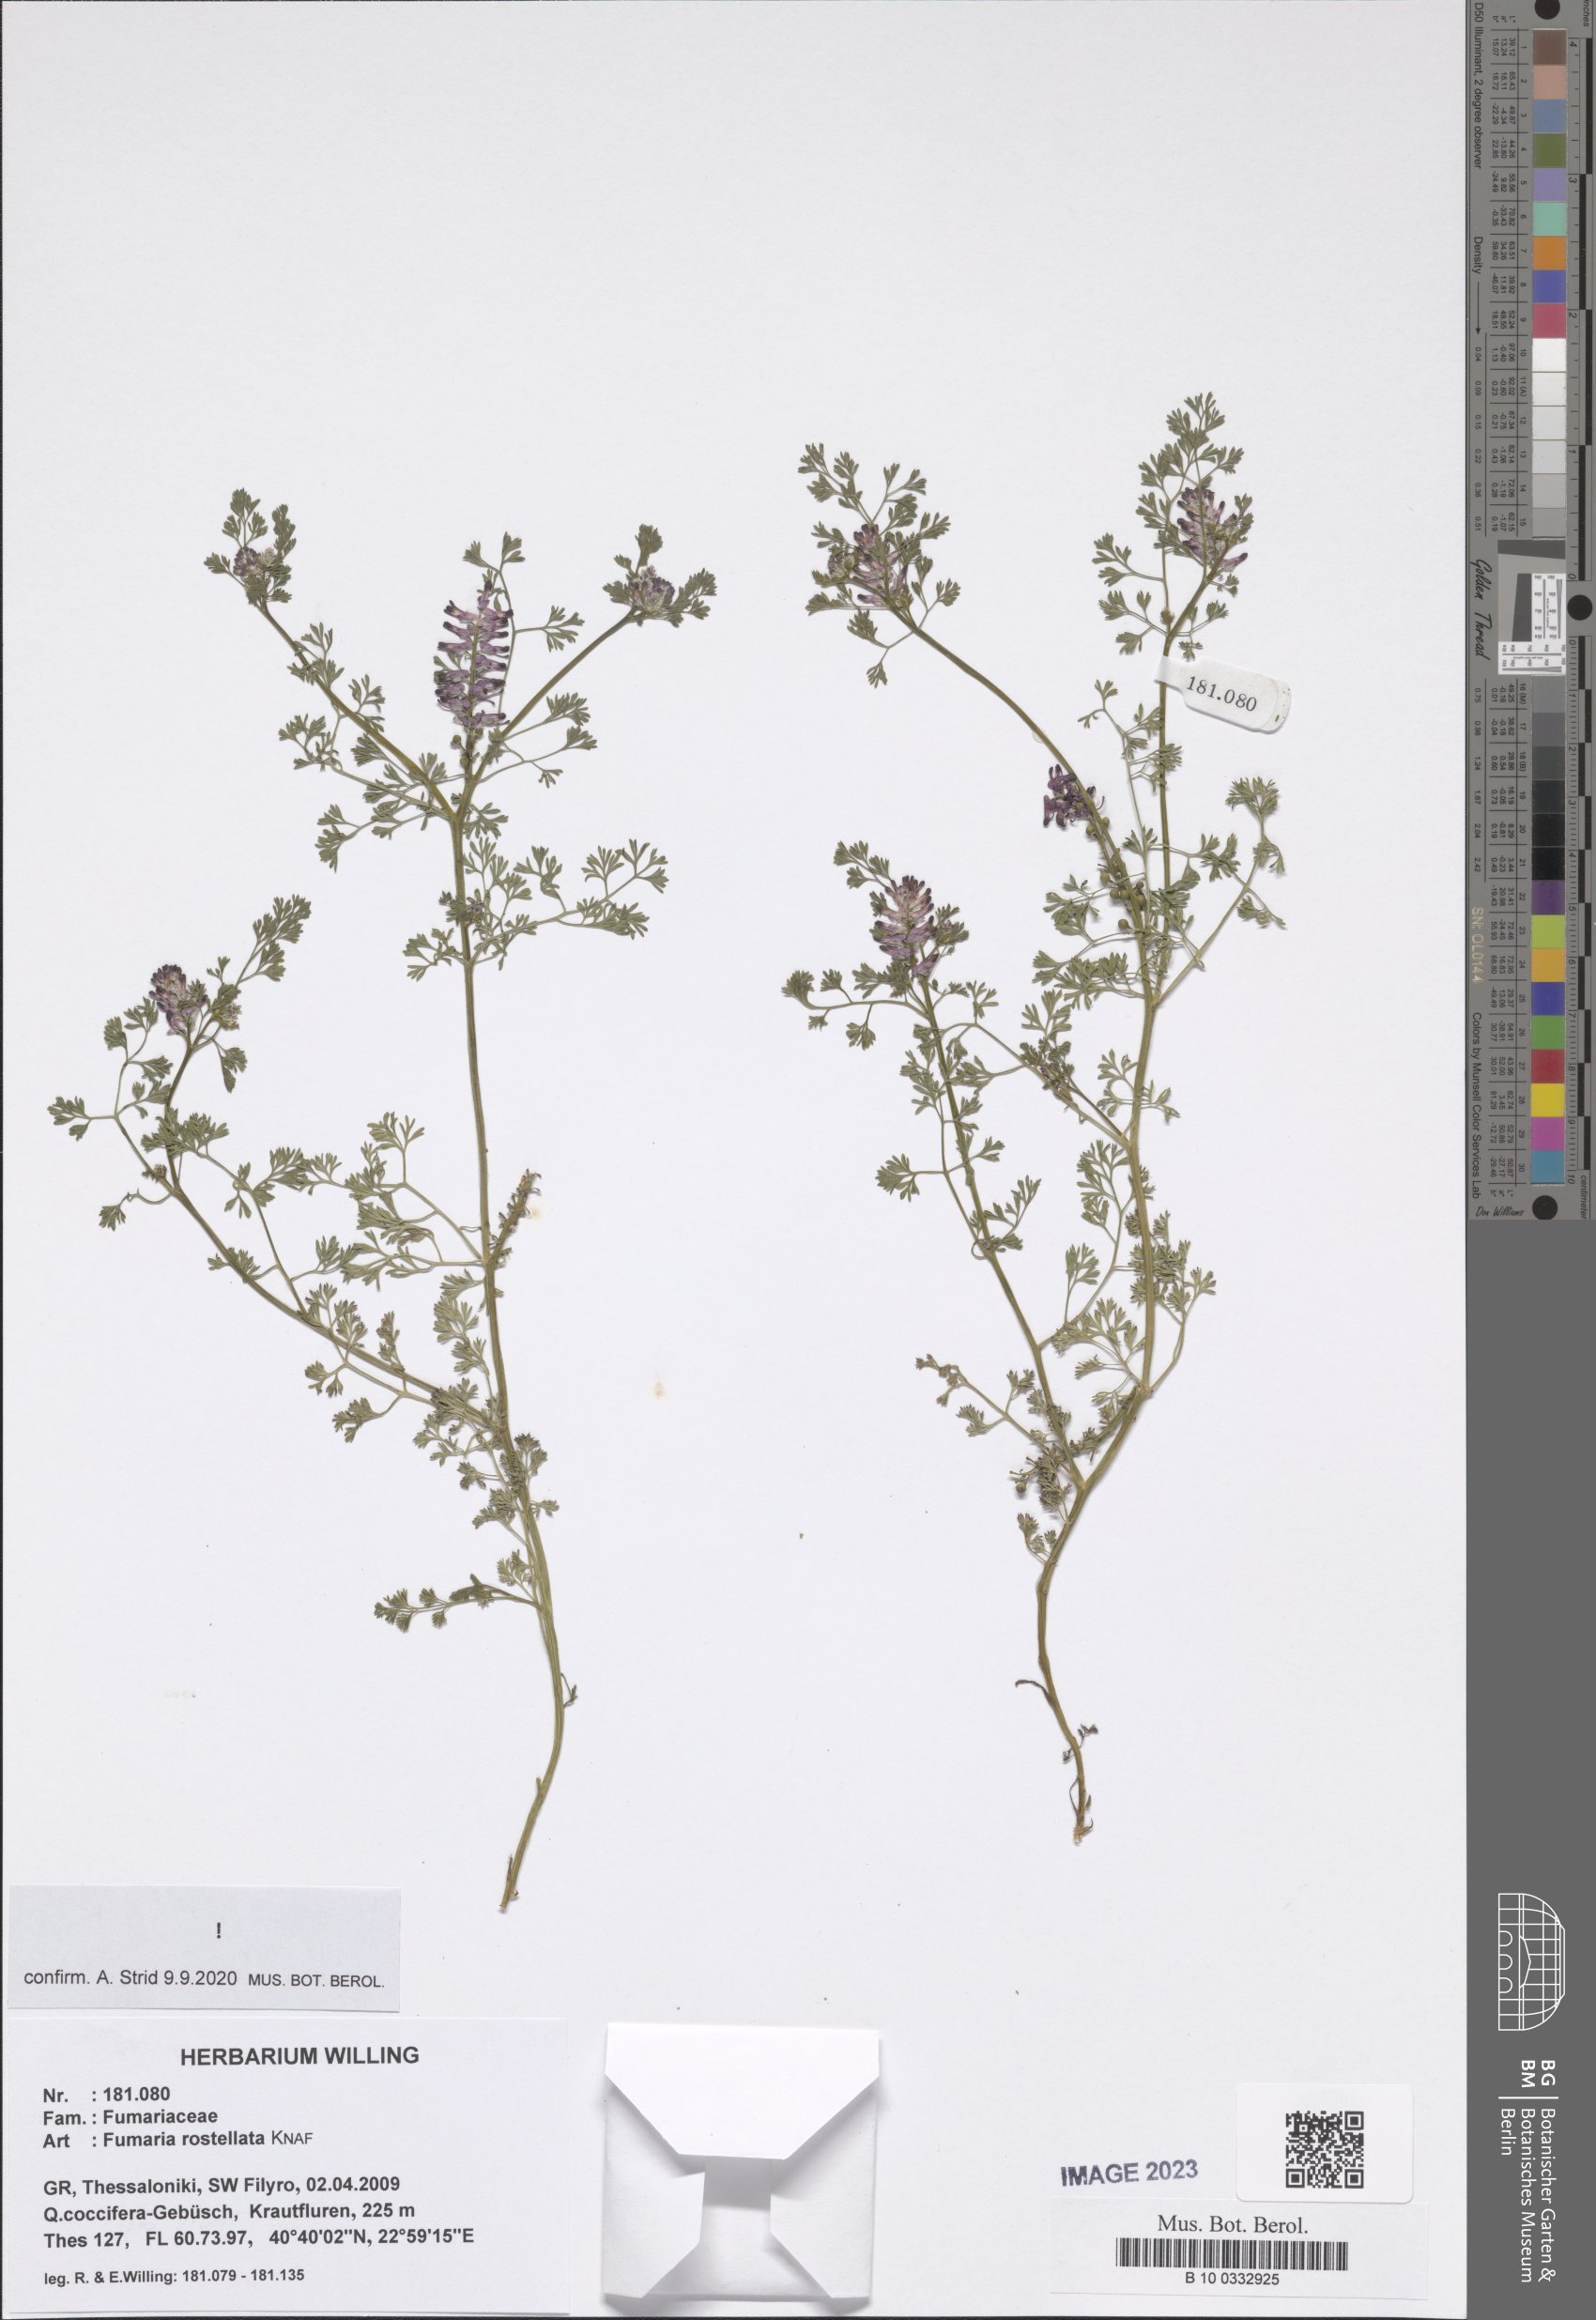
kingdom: Plantae
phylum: Tracheophyta
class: Magnoliopsida
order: Ranunculales
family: Papaveraceae
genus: Fumaria
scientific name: Fumaria rostellata
